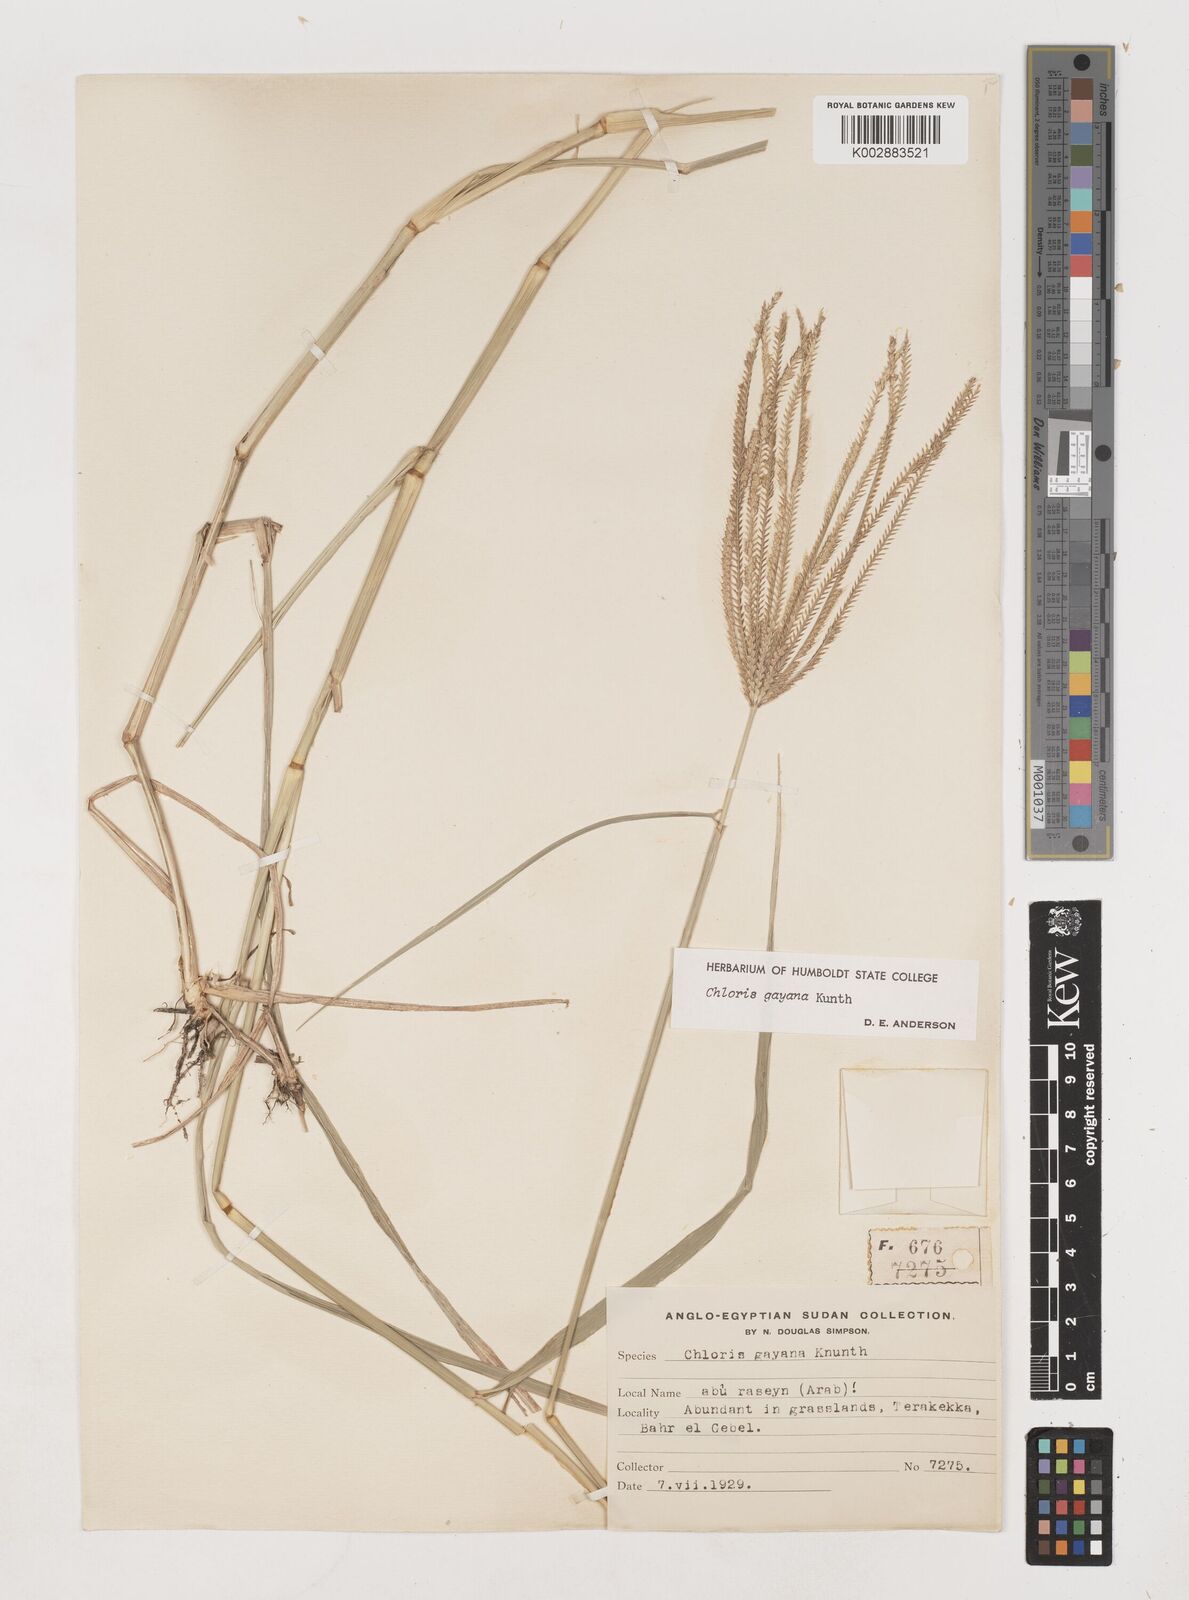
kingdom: Plantae
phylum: Tracheophyta
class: Liliopsida
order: Poales
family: Poaceae
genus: Chloris
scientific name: Chloris gayana
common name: Rhodes grass
